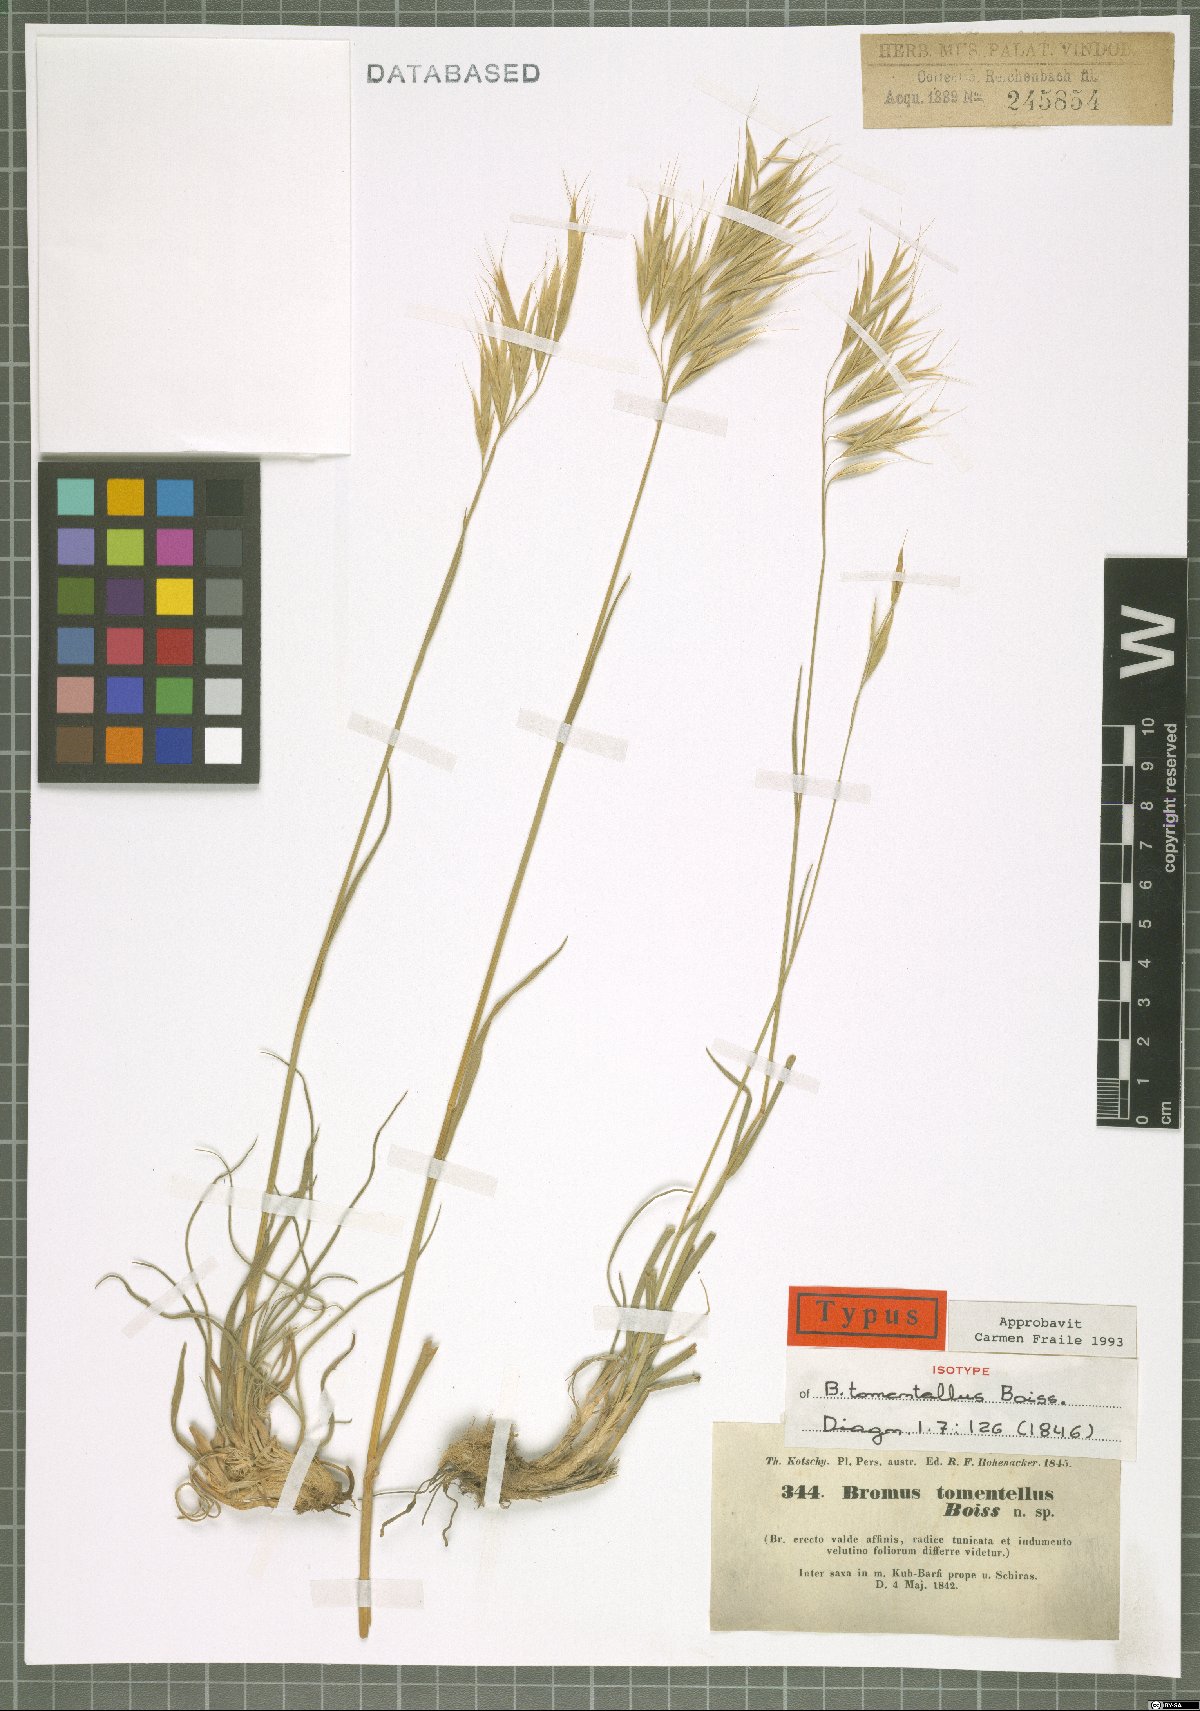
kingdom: Plantae
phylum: Tracheophyta
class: Liliopsida
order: Poales
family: Poaceae
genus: Bromus
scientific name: Bromus tomentellus
